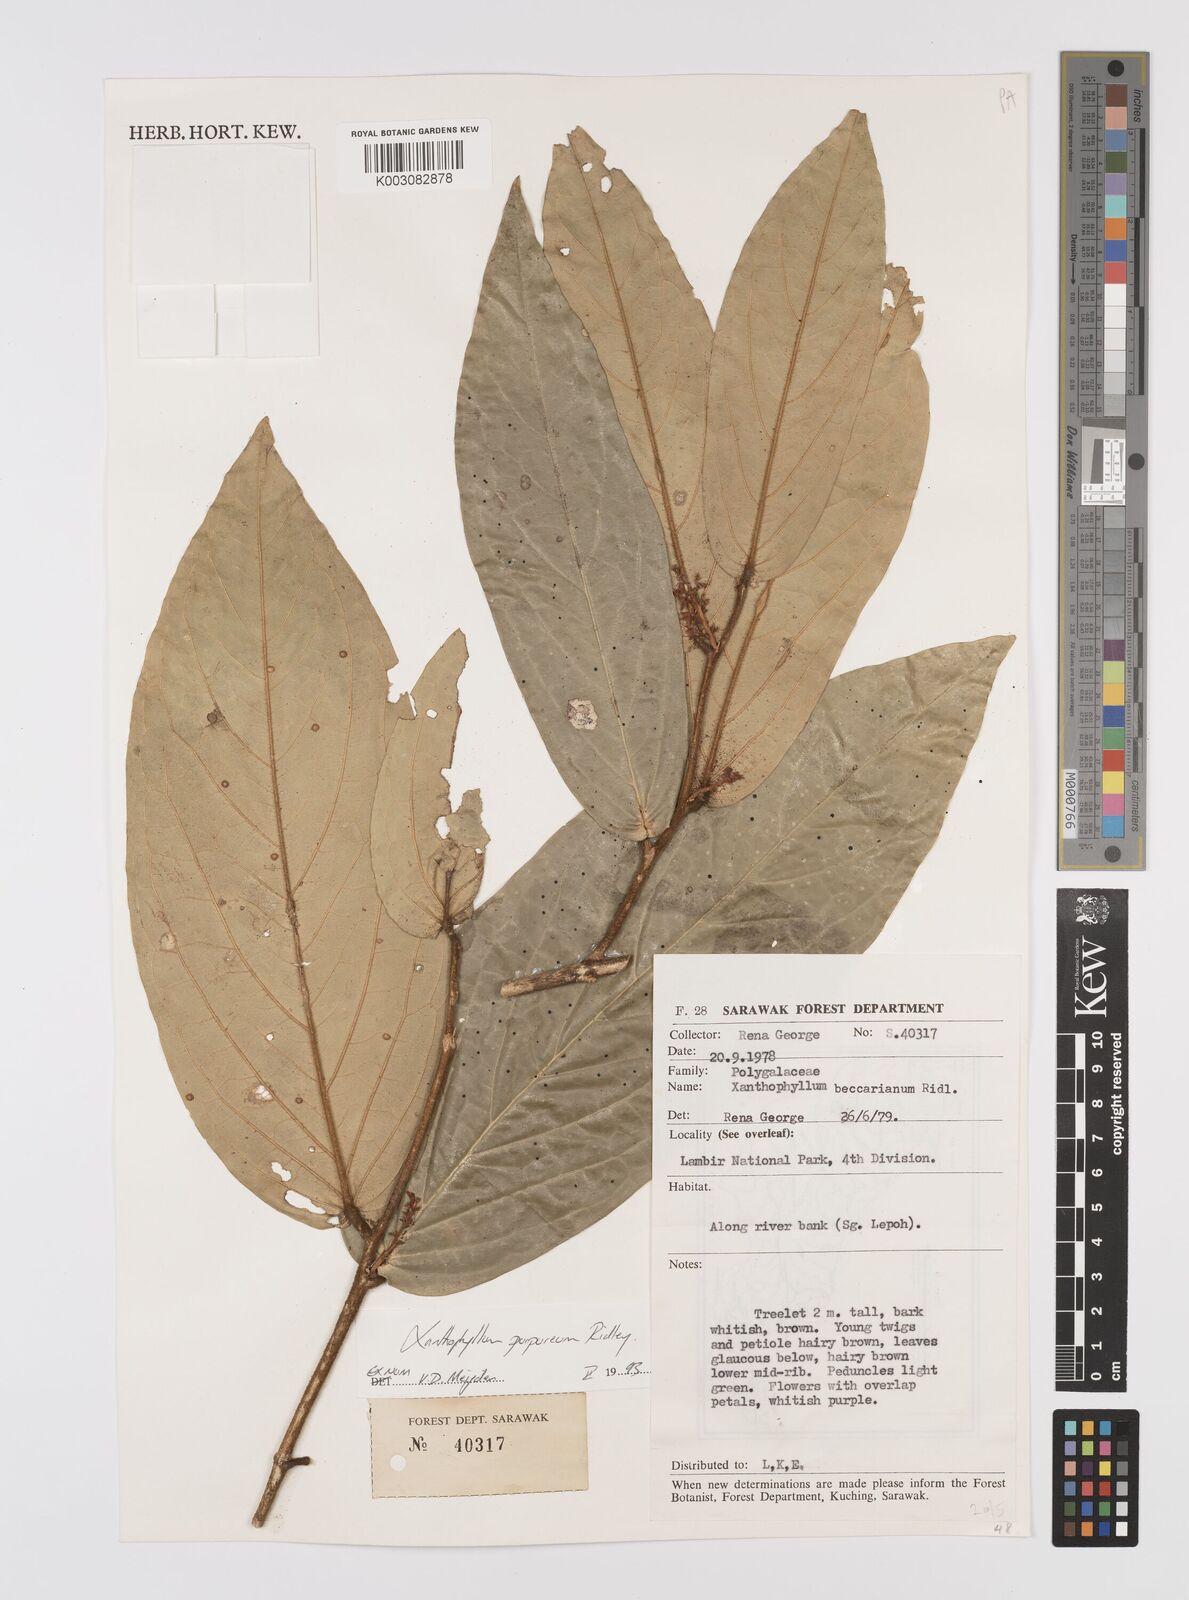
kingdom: Plantae
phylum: Tracheophyta
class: Magnoliopsida
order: Fabales
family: Polygalaceae
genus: Xanthophyllum
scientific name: Xanthophyllum purpureum
